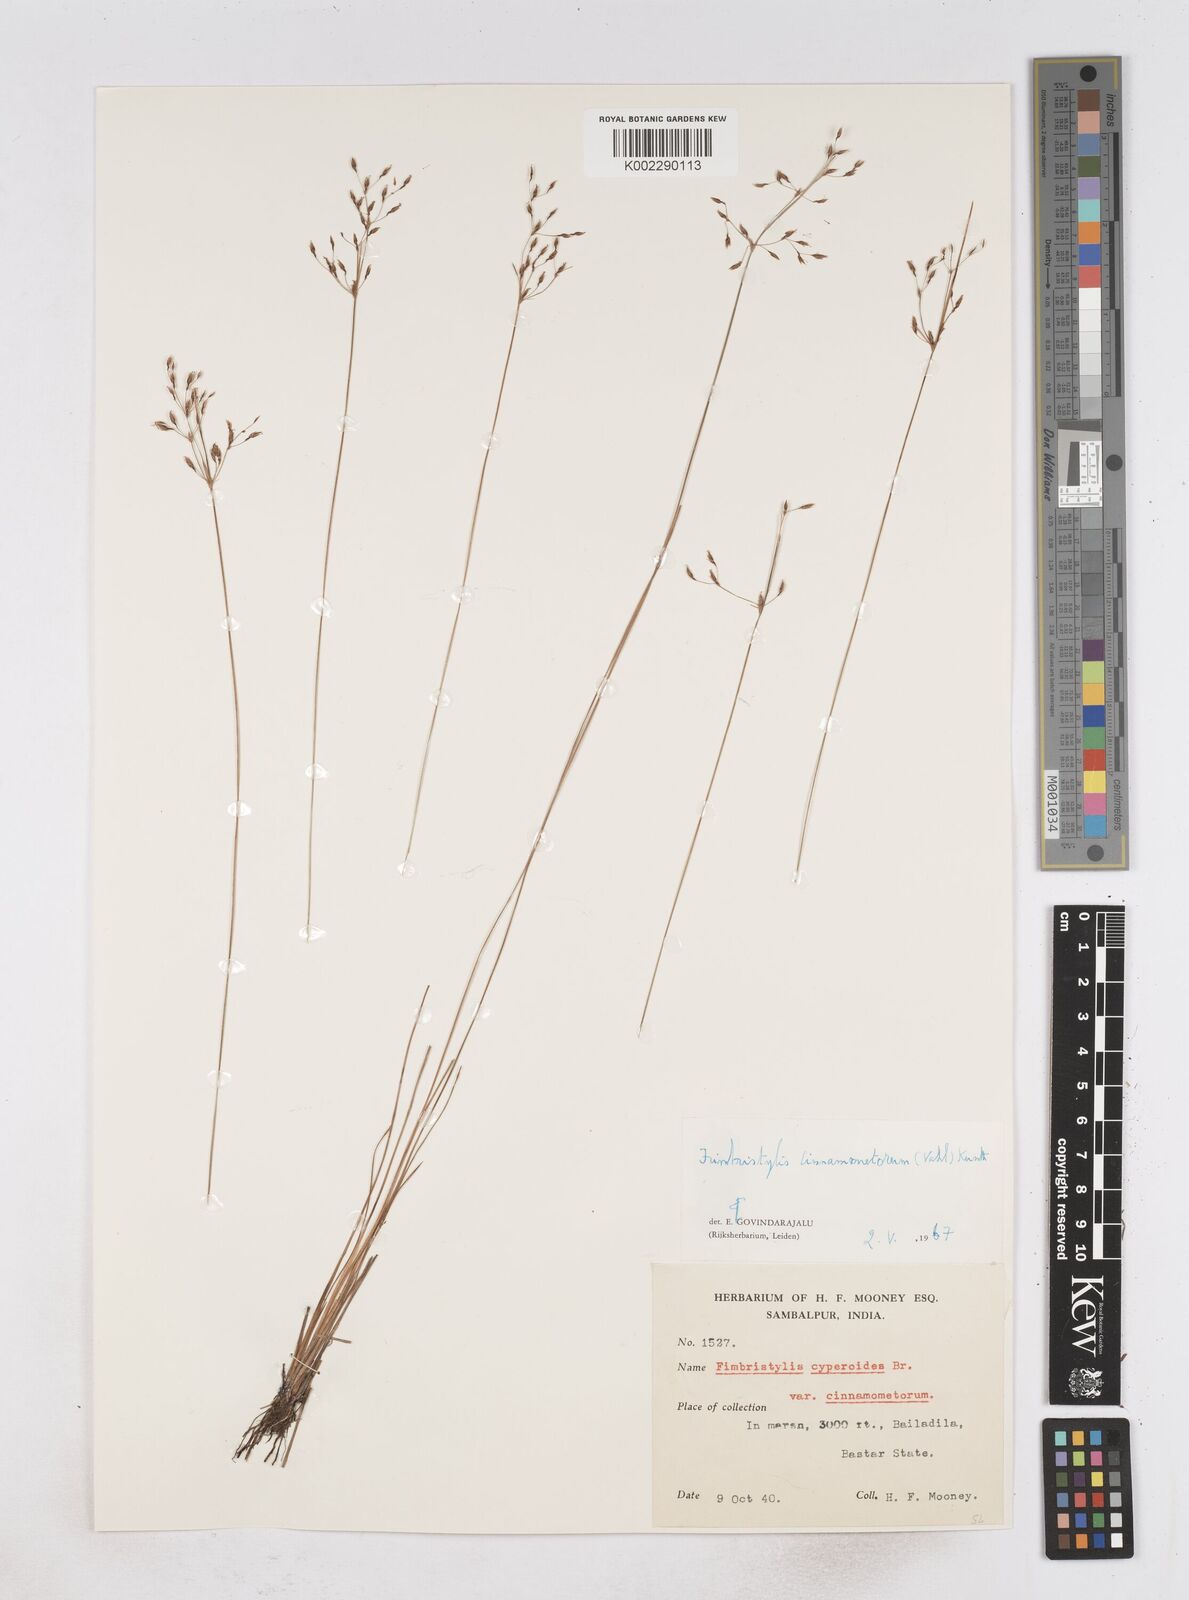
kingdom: Plantae
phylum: Tracheophyta
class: Liliopsida
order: Poales
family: Cyperaceae
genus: Fimbristylis
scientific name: Fimbristylis cinnamometorum
